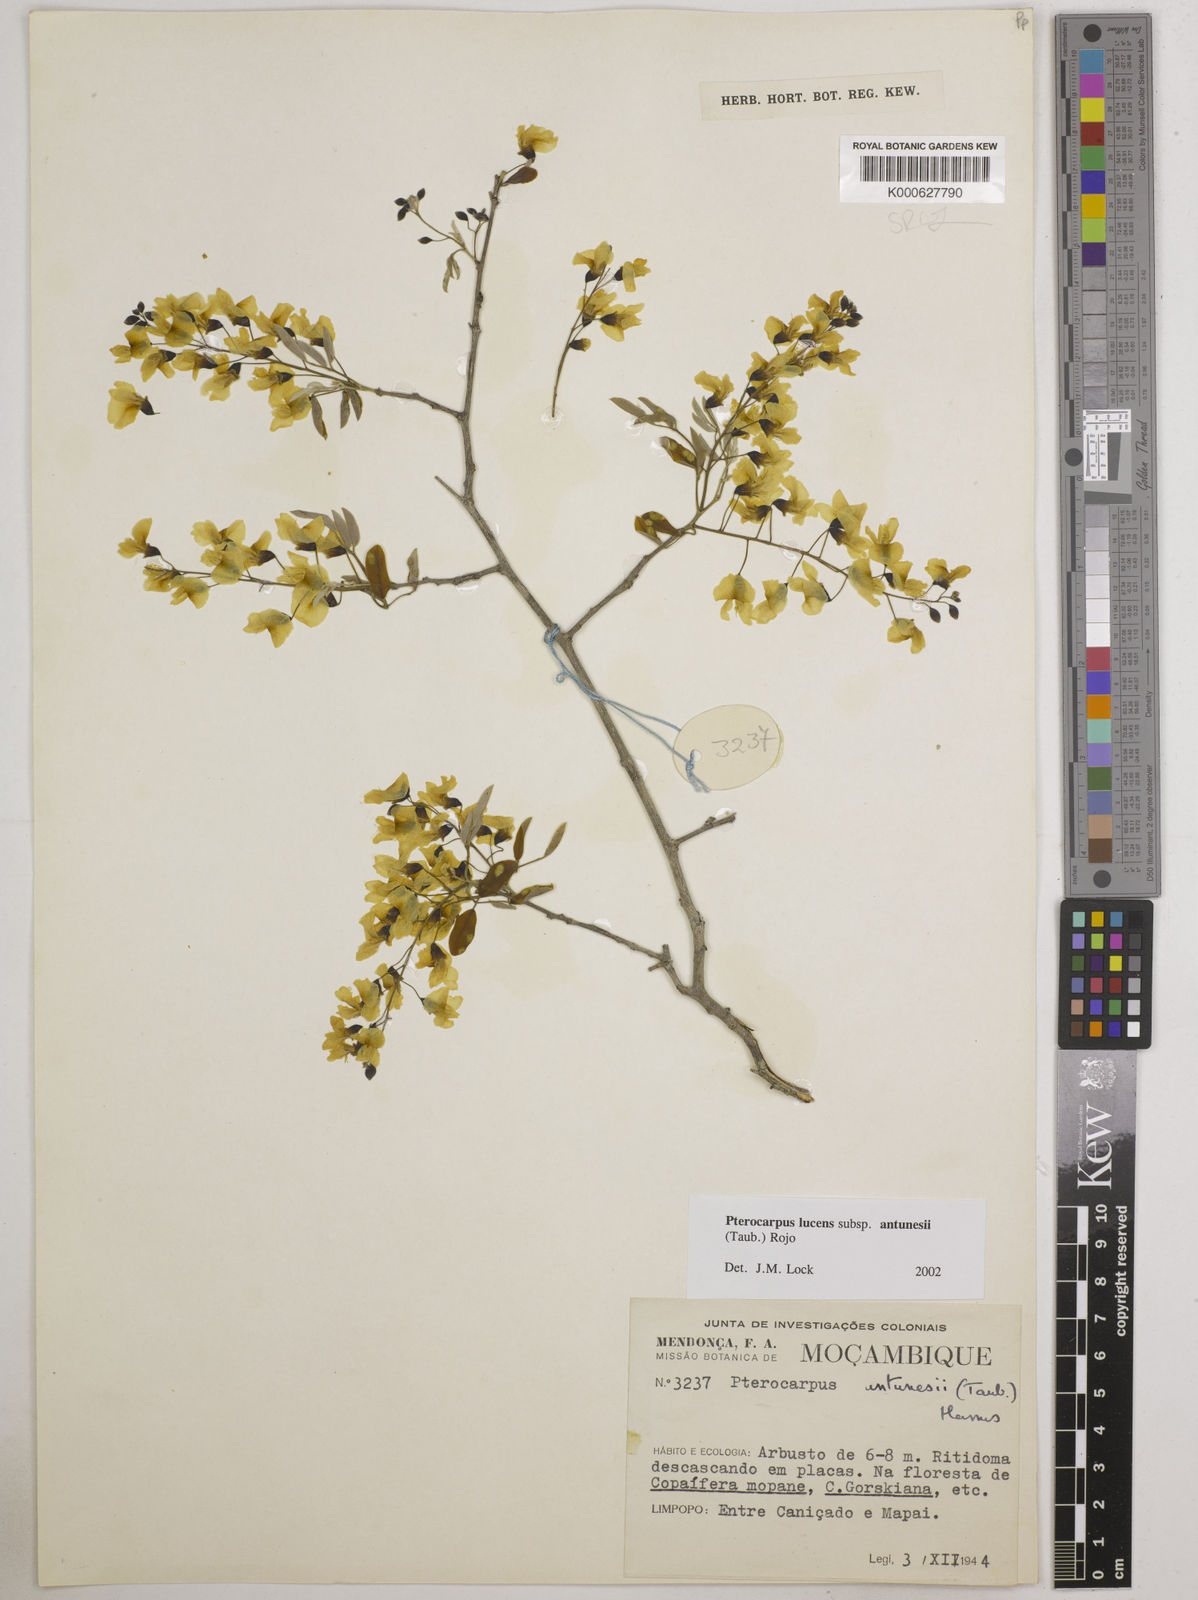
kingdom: Plantae
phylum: Tracheophyta
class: Magnoliopsida
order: Fabales
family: Fabaceae
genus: Pterocarpus
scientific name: Pterocarpus lucens
